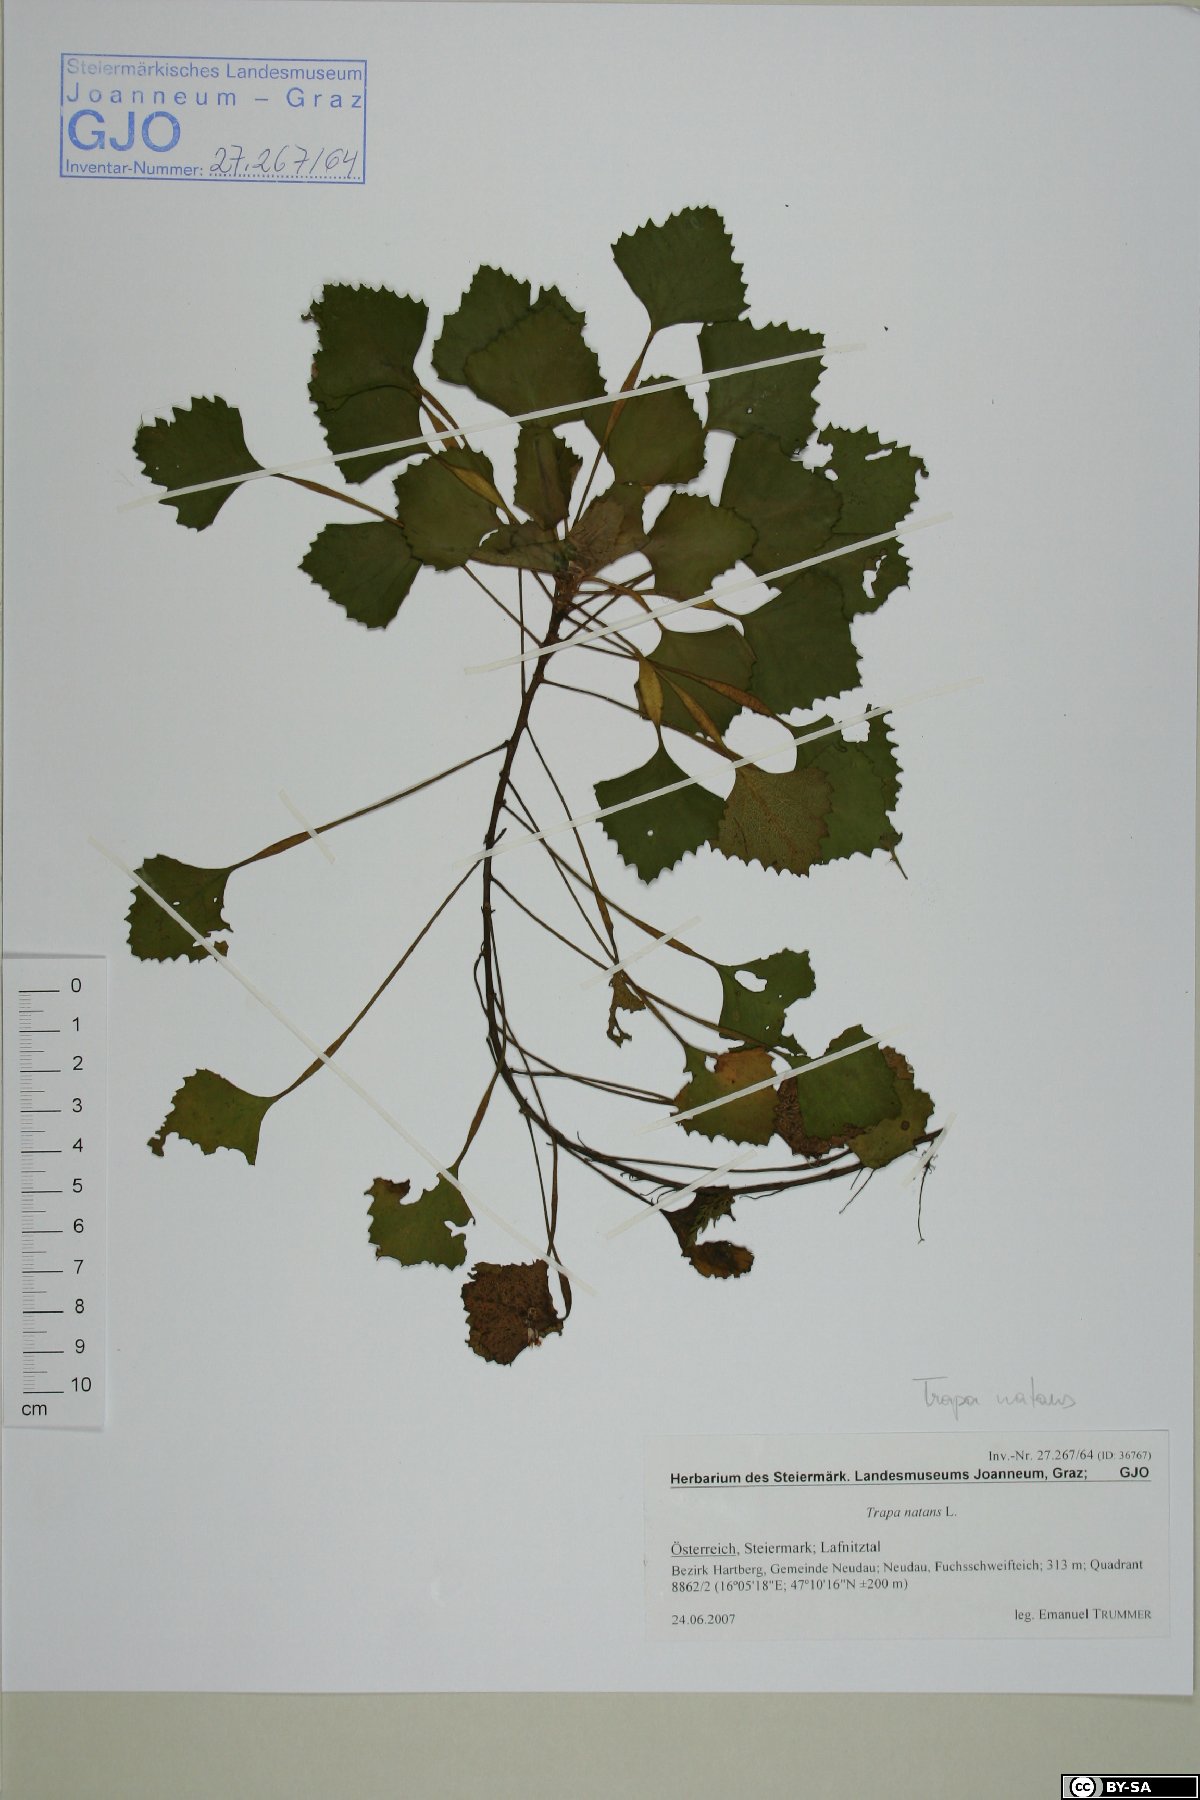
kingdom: Plantae
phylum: Tracheophyta
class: Magnoliopsida
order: Myrtales
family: Lythraceae
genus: Trapa
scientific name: Trapa natans
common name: Water chestnut
